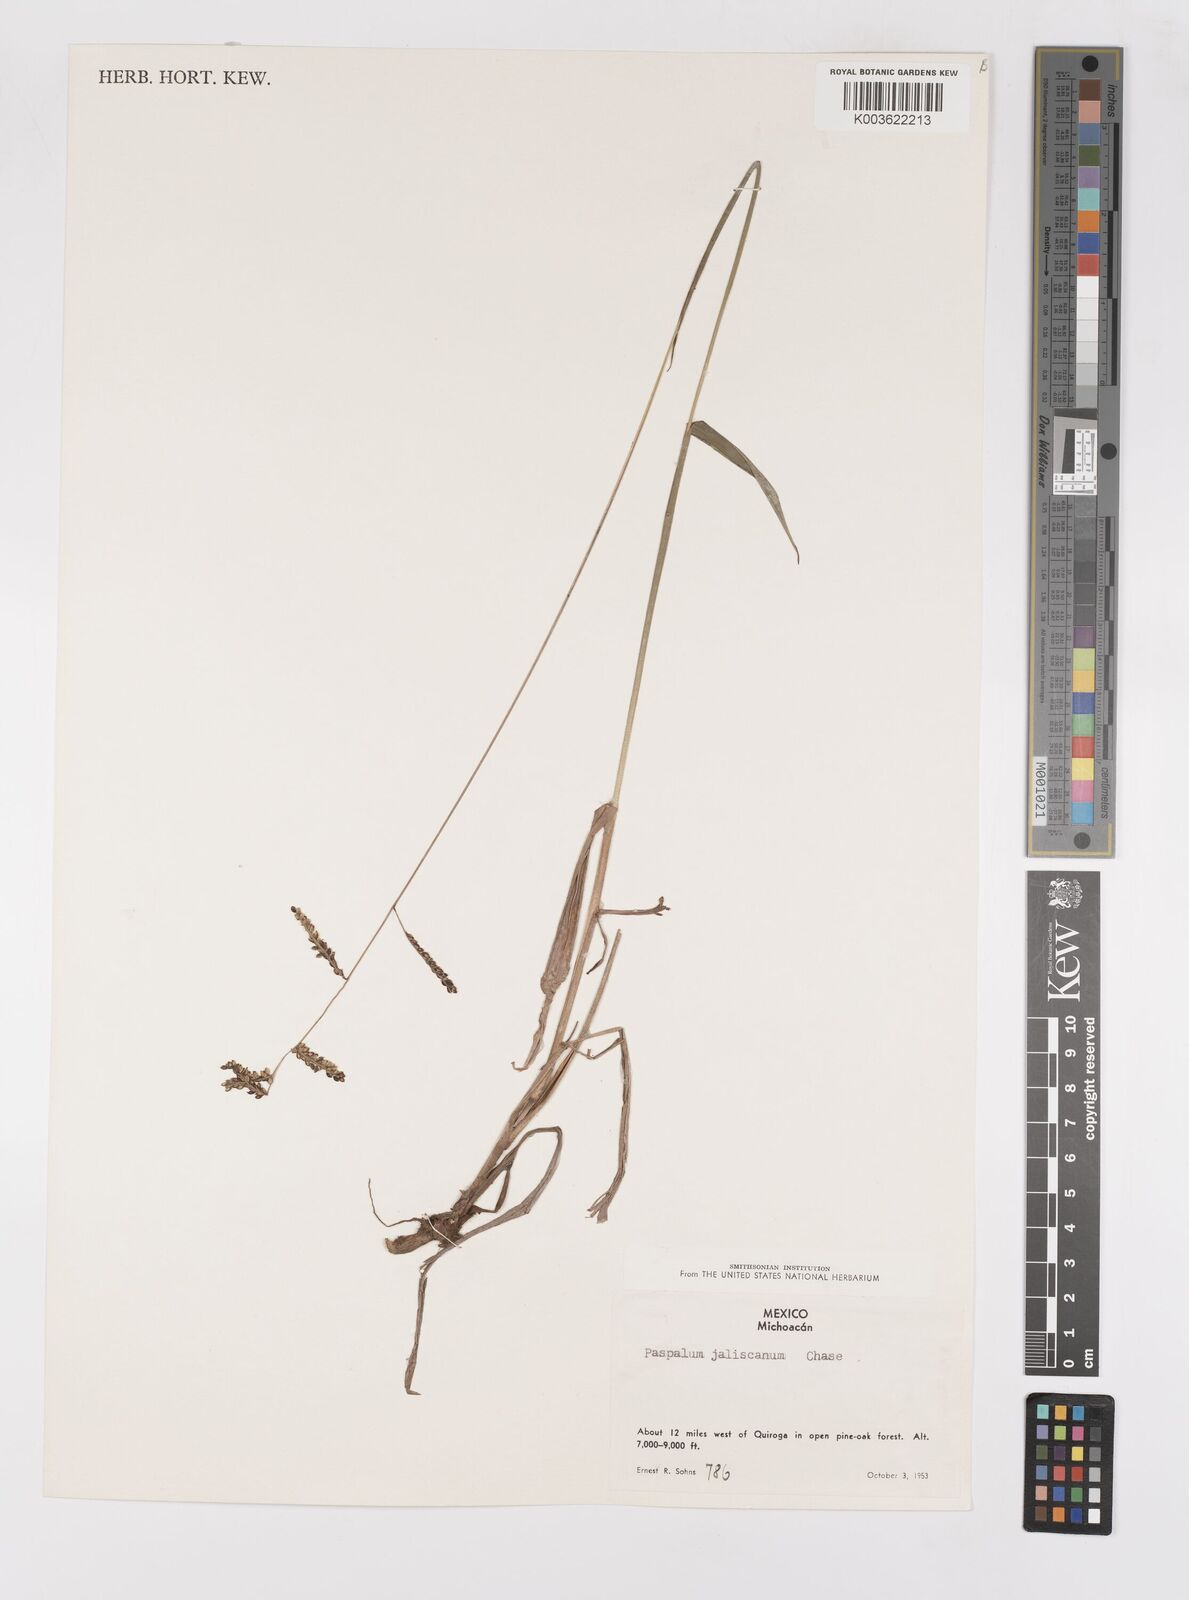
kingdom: Plantae
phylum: Tracheophyta
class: Liliopsida
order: Poales
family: Poaceae
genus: Paspalum
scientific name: Paspalum jaliscanum
